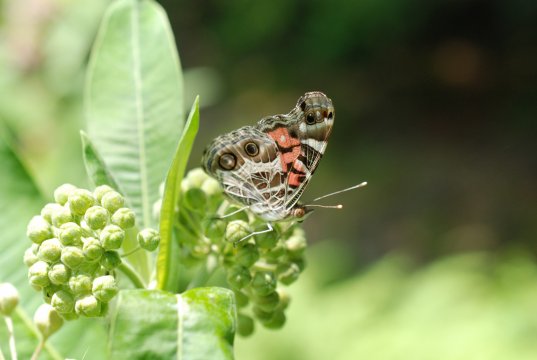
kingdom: Animalia
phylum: Arthropoda
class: Insecta
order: Lepidoptera
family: Nymphalidae
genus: Vanessa
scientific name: Vanessa virginiensis
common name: American Lady
